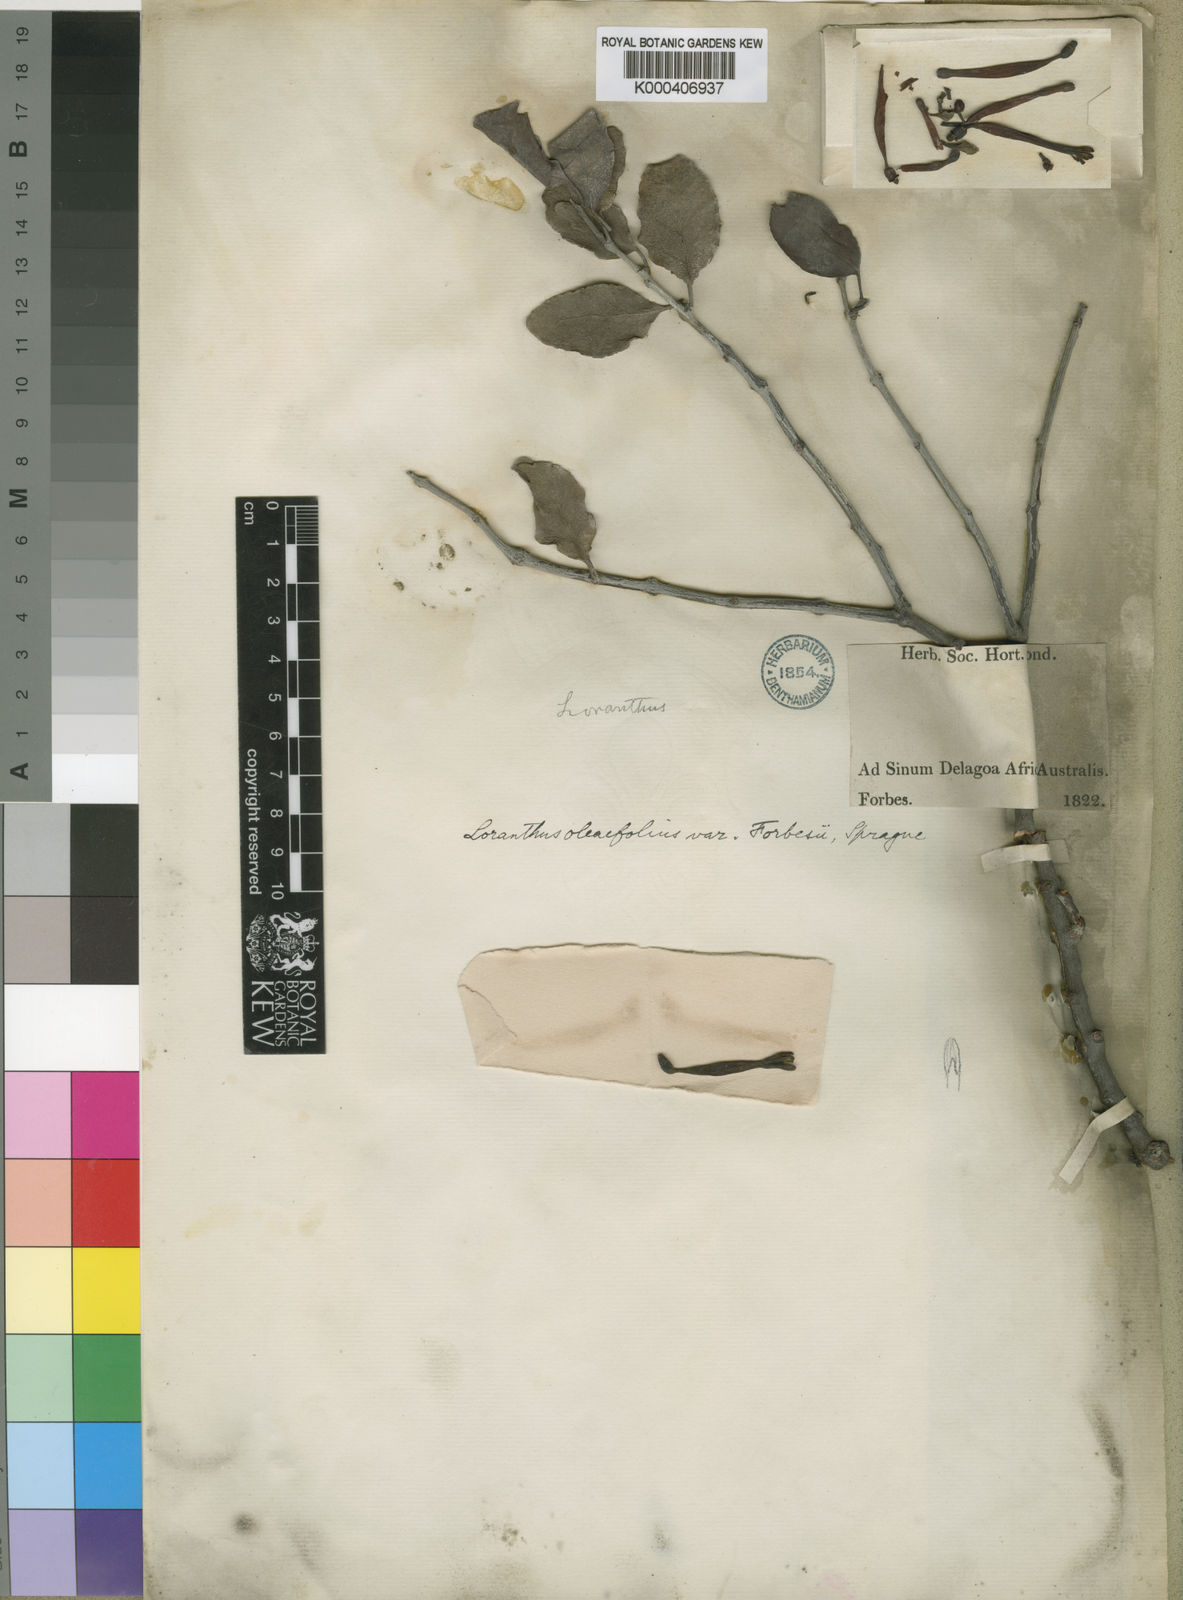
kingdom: Plantae
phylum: Tracheophyta
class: Magnoliopsida
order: Santalales
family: Loranthaceae
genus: Tapinanthus
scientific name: Tapinanthus forbesii
